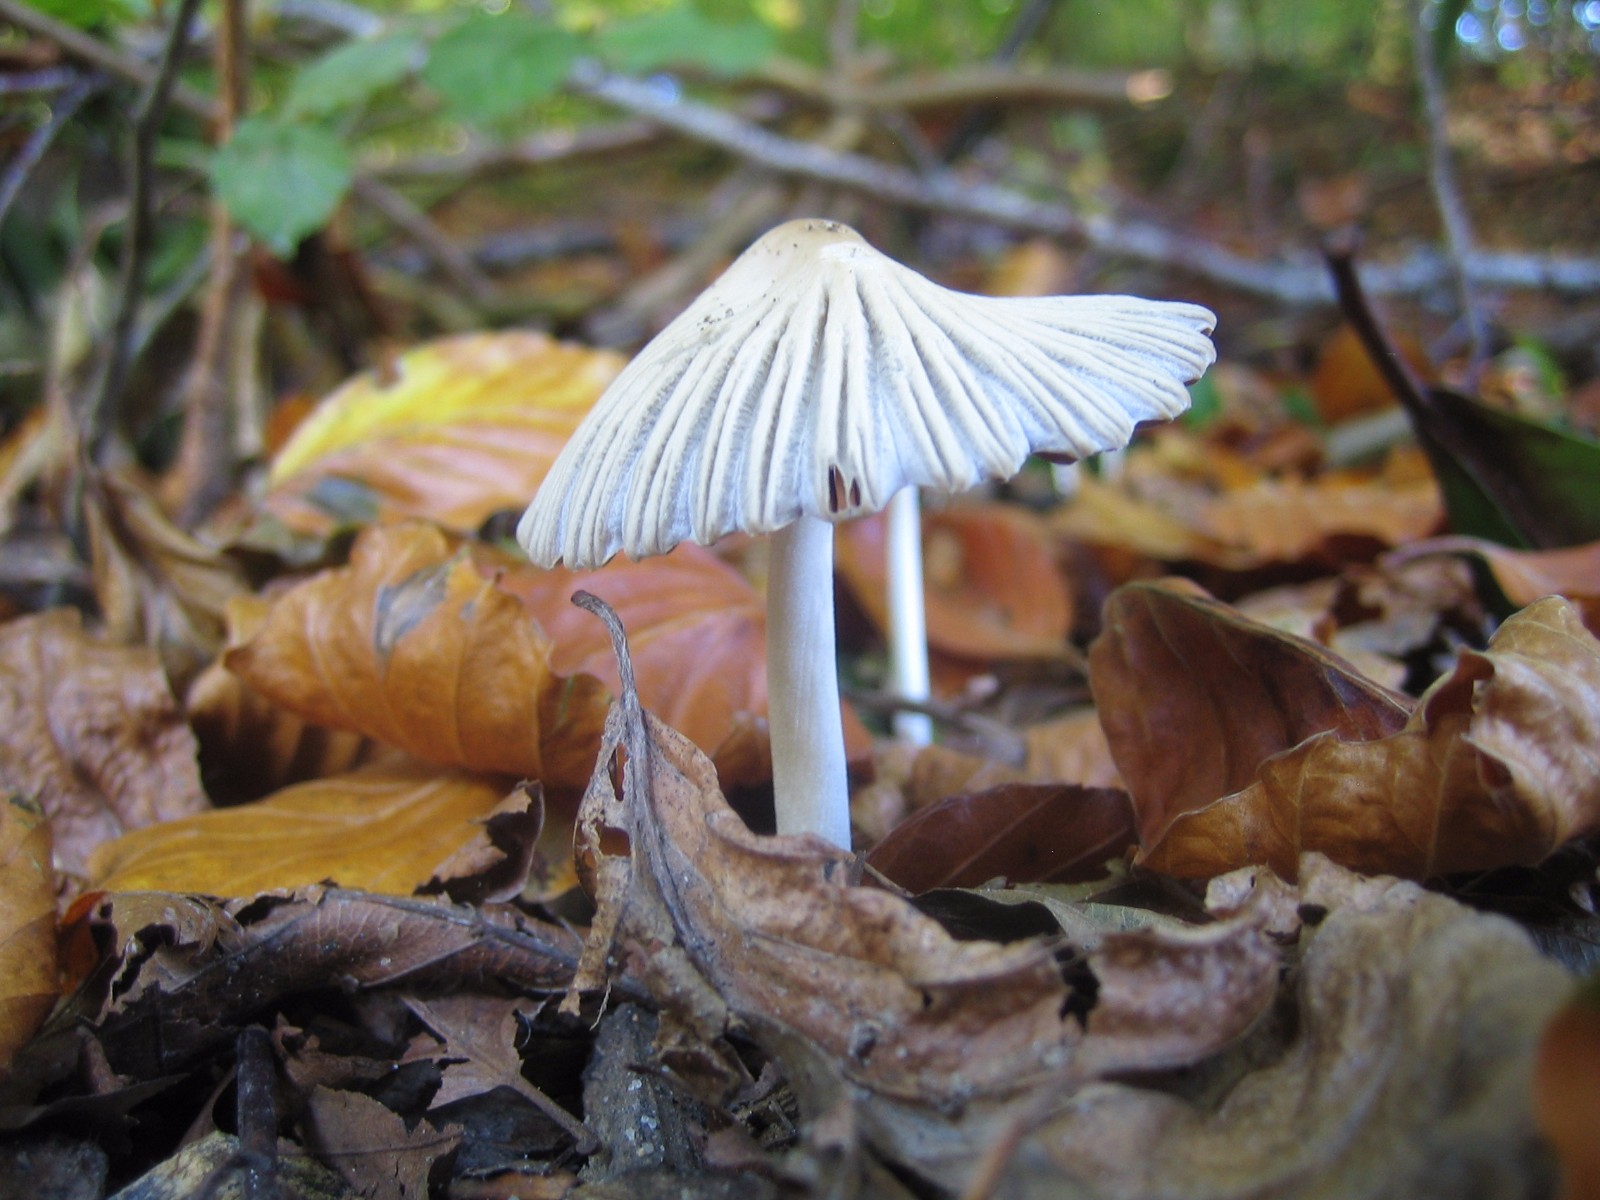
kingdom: Fungi
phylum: Basidiomycota
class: Agaricomycetes
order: Agaricales
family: Psathyrellaceae
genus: Coprinellus
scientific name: Coprinellus
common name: blækhat
